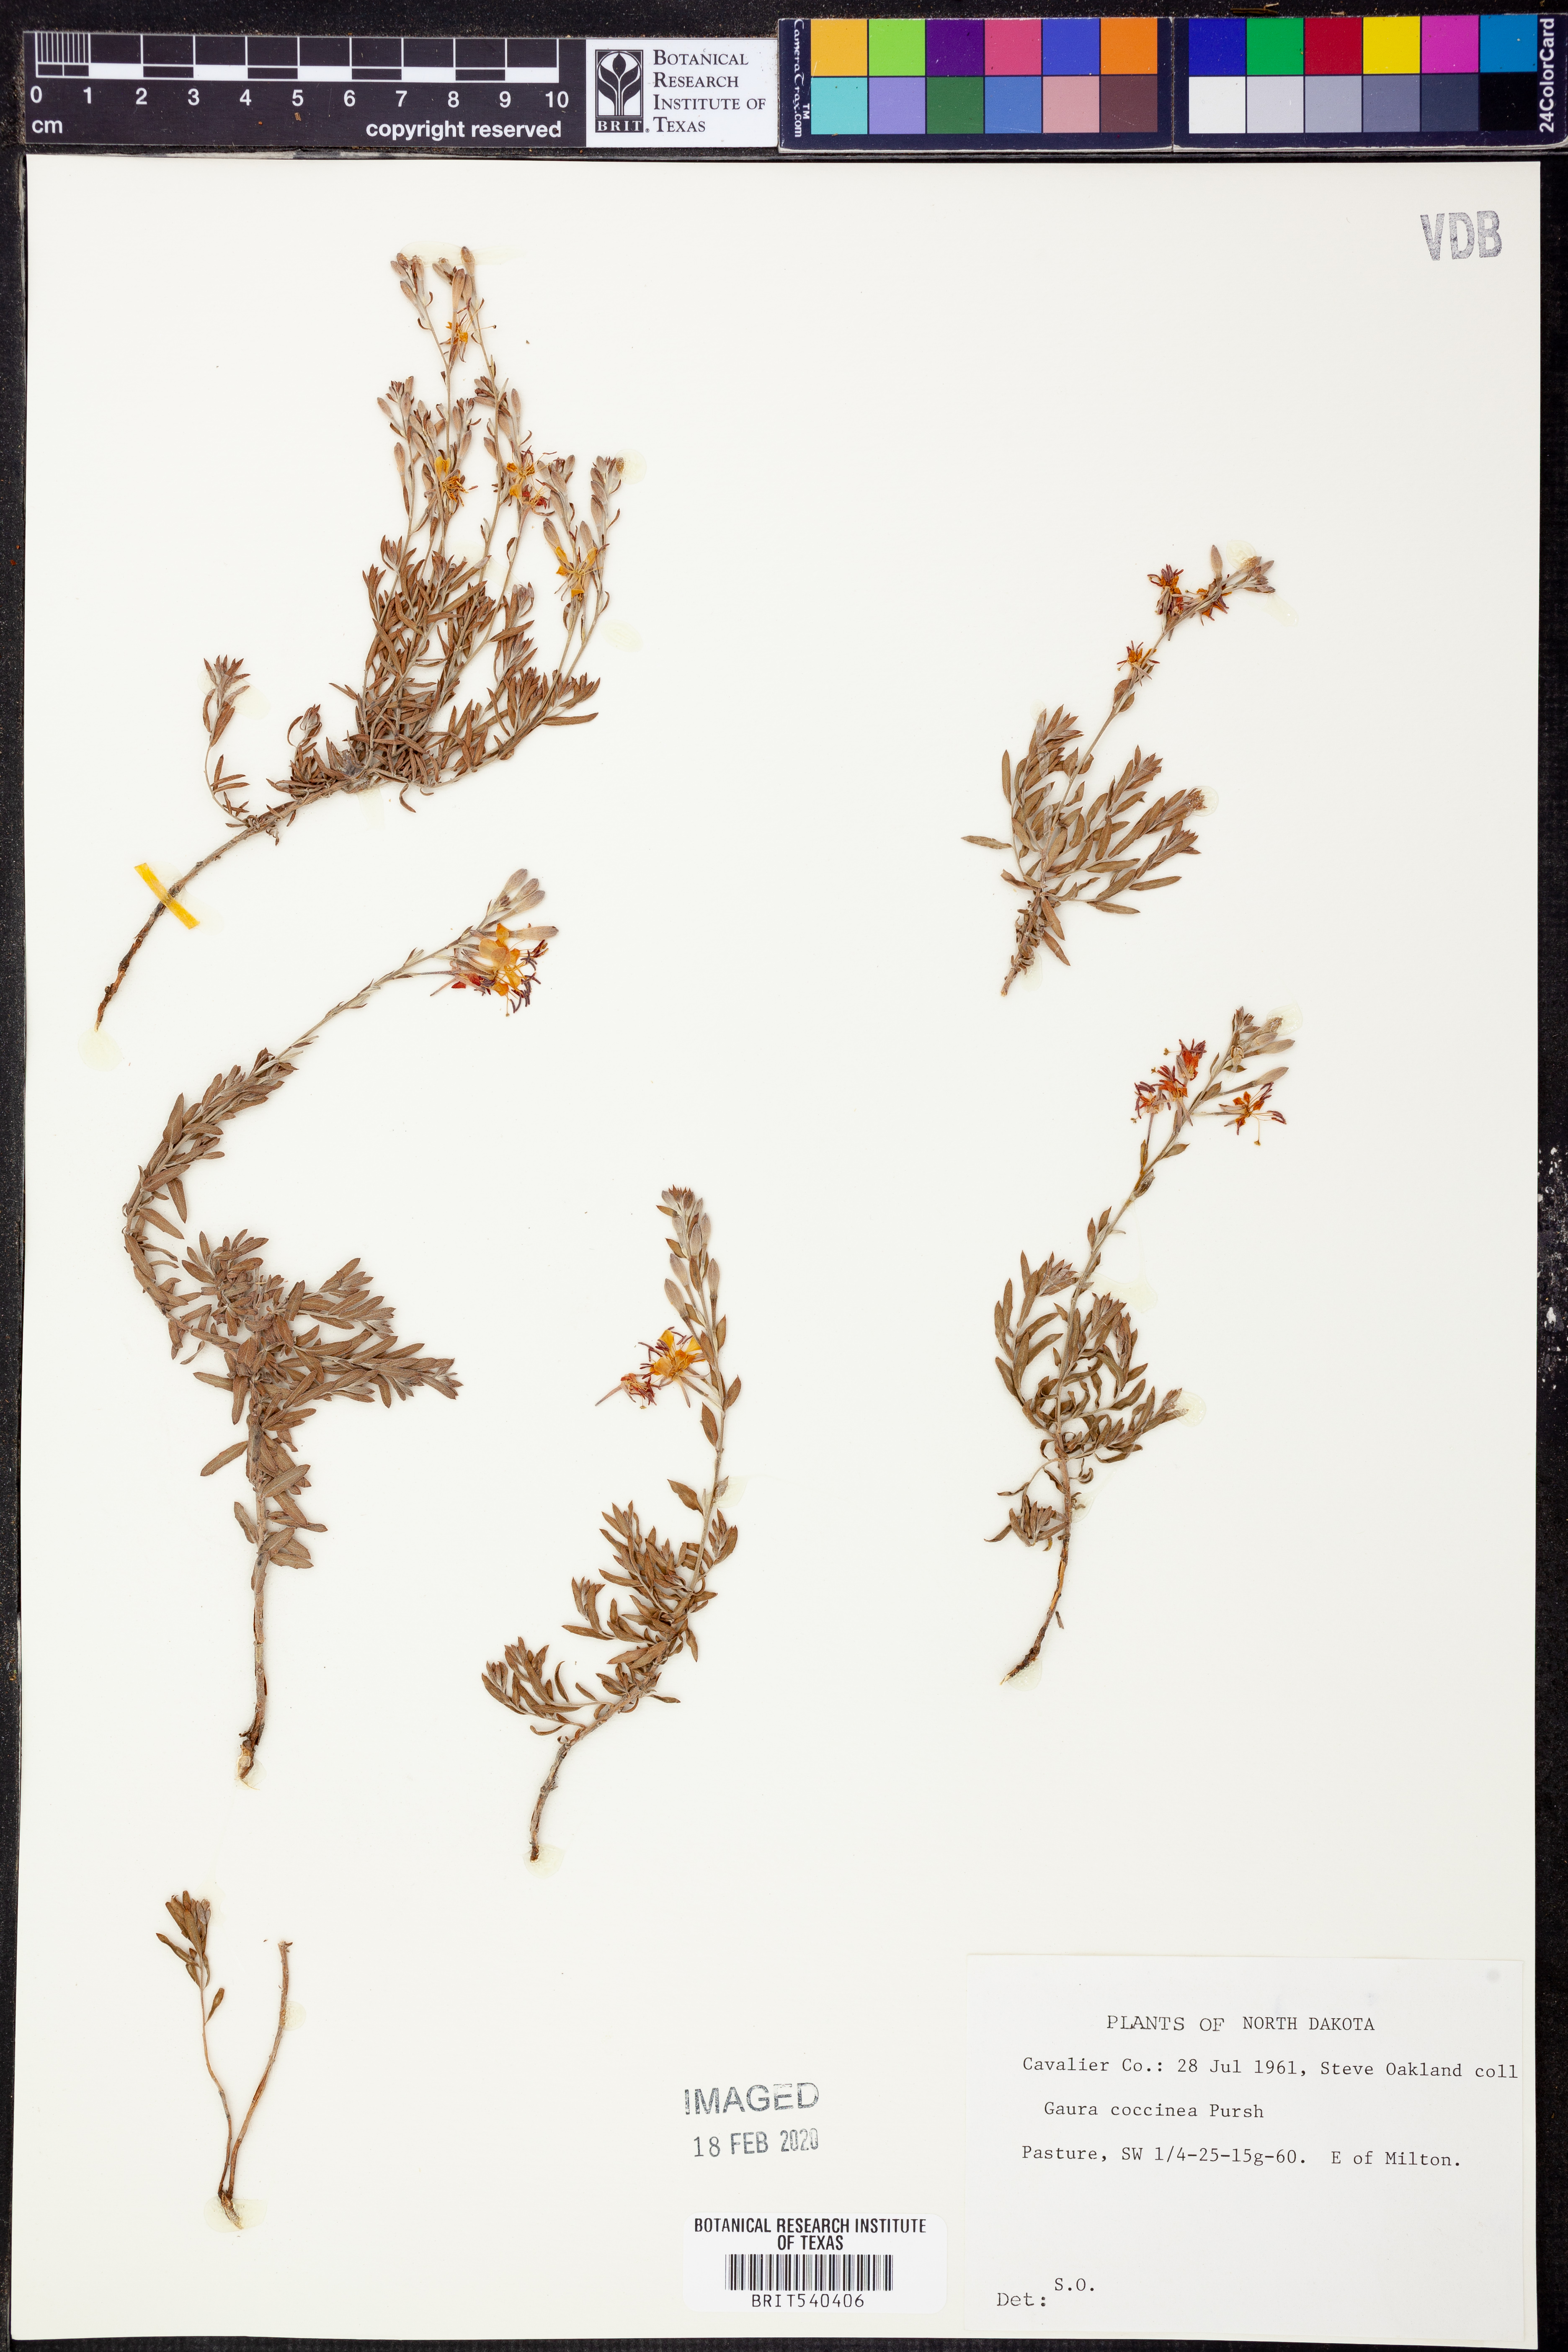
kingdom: Plantae
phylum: Tracheophyta
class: Magnoliopsida
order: Myrtales
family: Onagraceae
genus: Oenothera
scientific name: Oenothera suffrutescens
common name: Scarlet beeblossom
